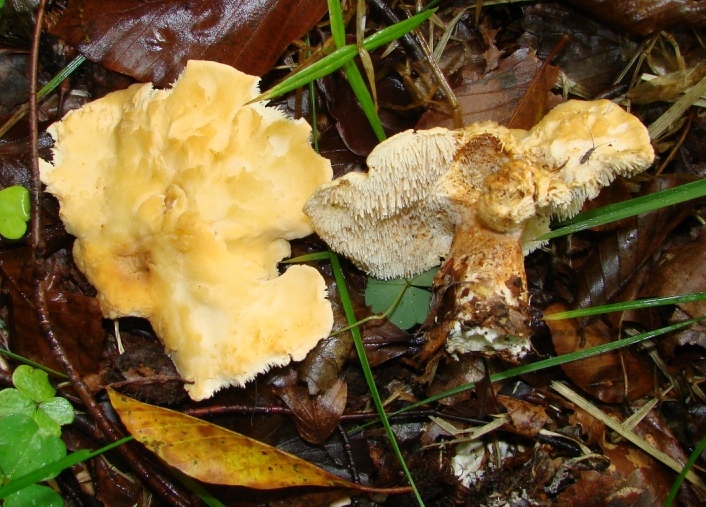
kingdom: Fungi
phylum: Basidiomycota
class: Agaricomycetes
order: Cantharellales
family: Hydnaceae
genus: Hydnum
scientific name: Hydnum repandum
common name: almindelig pigsvamp
